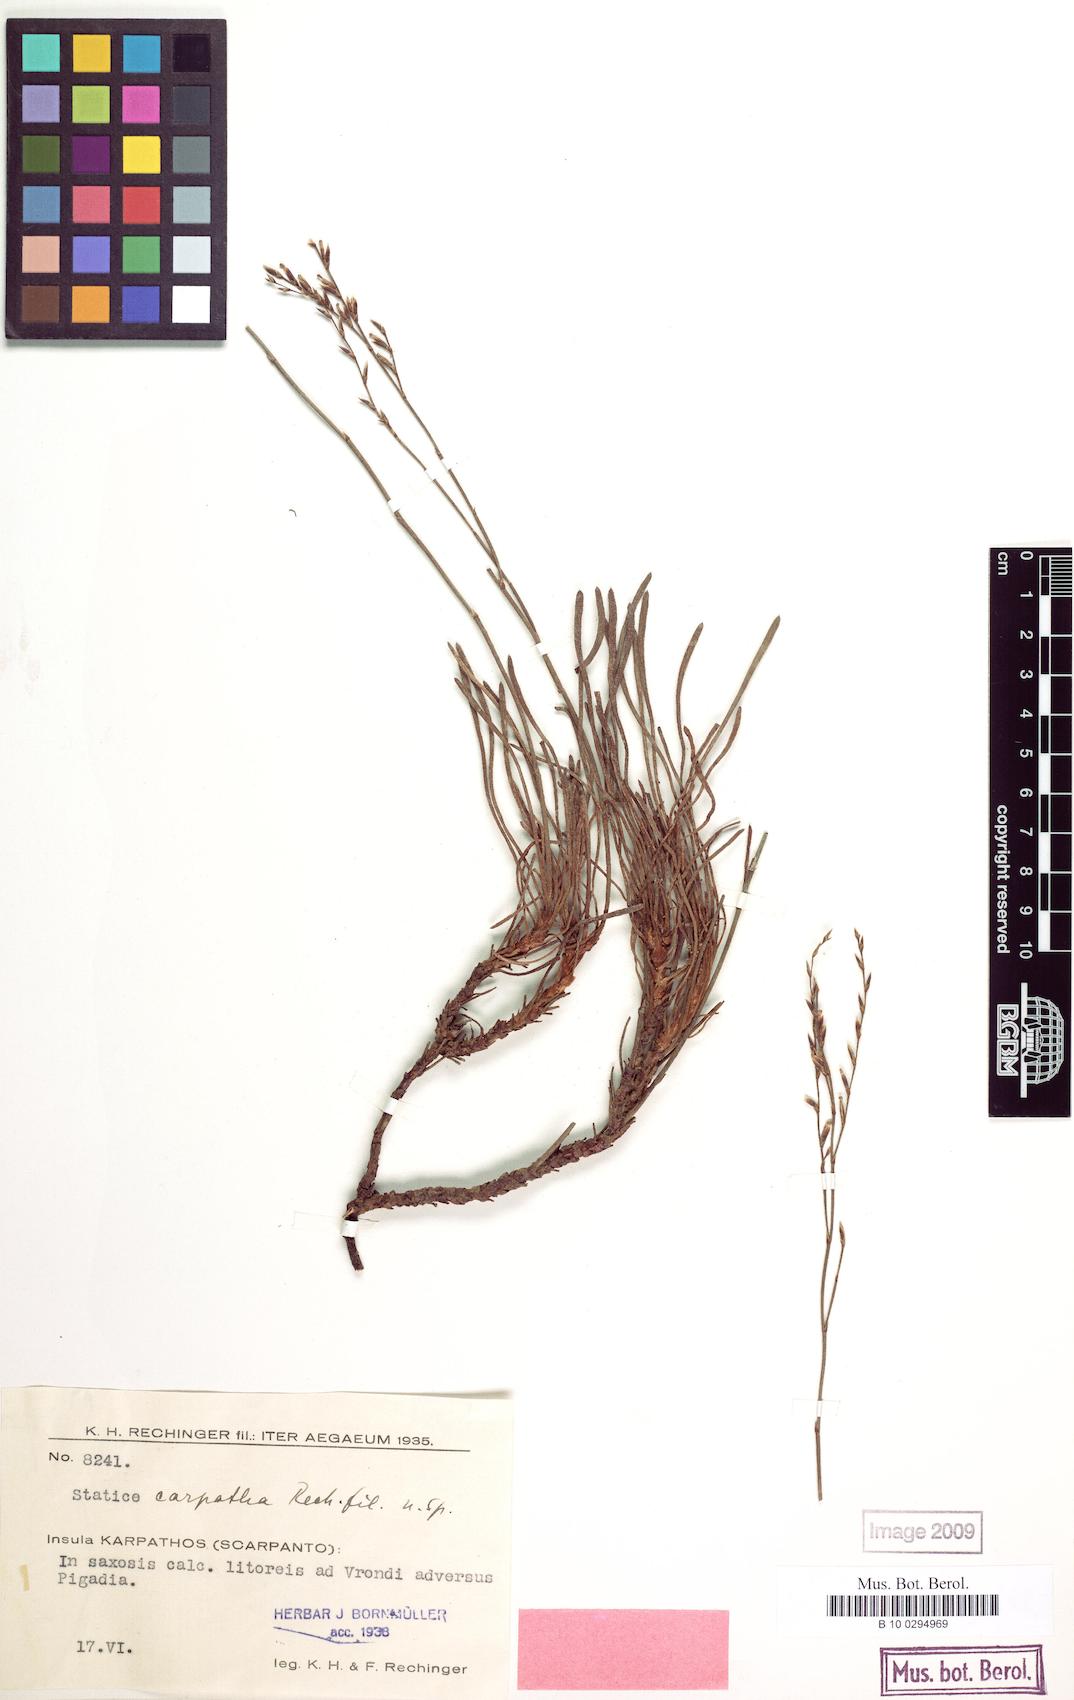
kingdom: Plantae
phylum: Tracheophyta
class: Magnoliopsida
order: Caryophyllales
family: Plumbaginaceae
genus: Limonium
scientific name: Limonium carpathum
